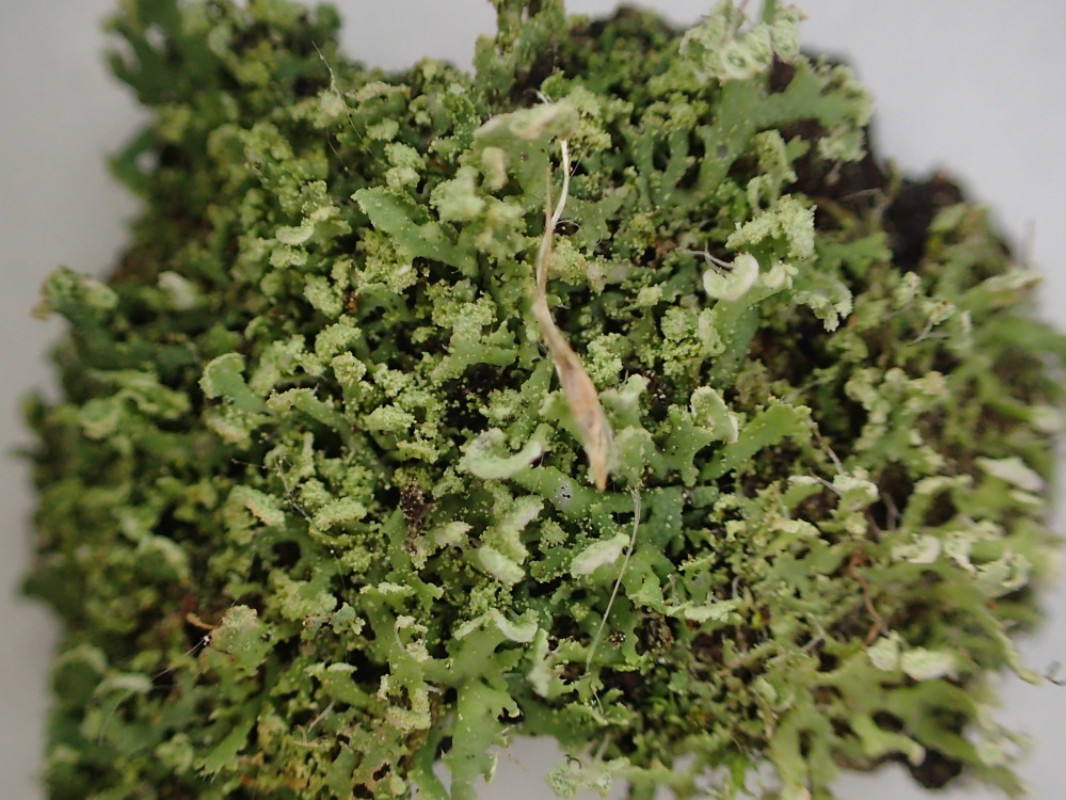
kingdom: Fungi
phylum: Ascomycota
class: Lecanoromycetes
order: Caliciales
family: Physciaceae
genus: Physcia
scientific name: Physcia tenella
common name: spæd rosetlav
